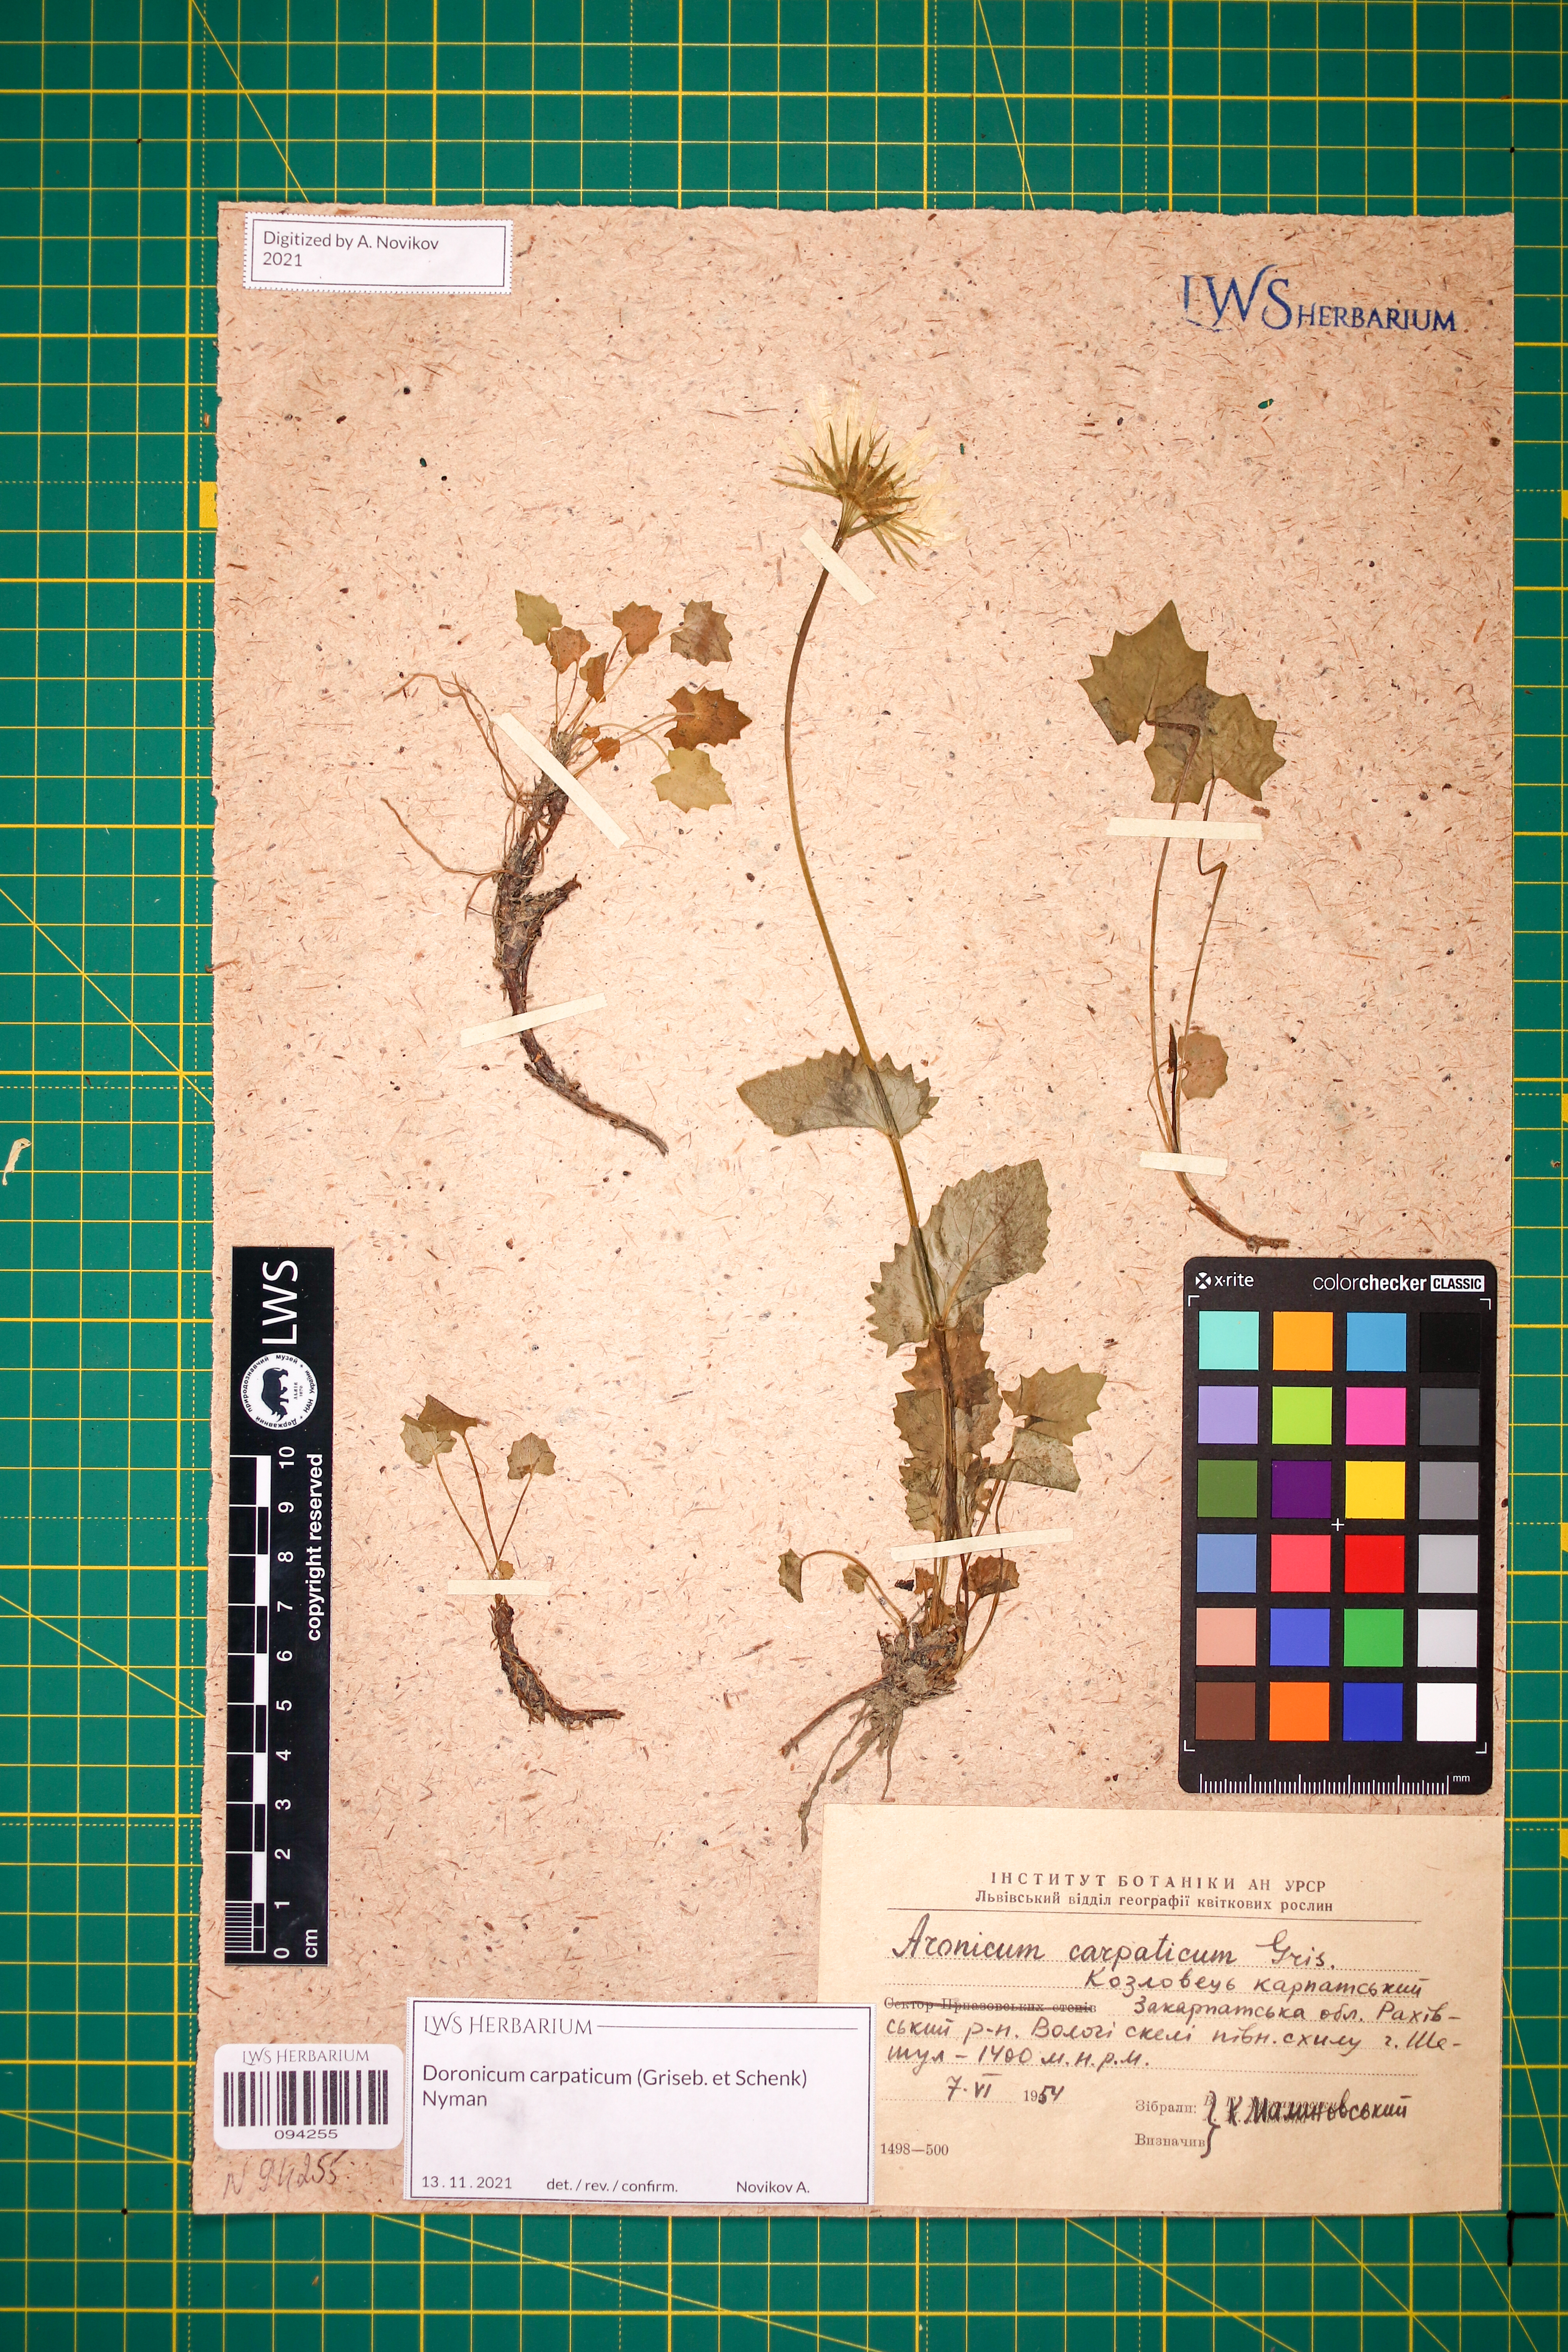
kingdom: Plantae
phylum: Tracheophyta
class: Magnoliopsida
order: Asterales
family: Asteraceae
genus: Doronicum
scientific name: Doronicum carpaticum
